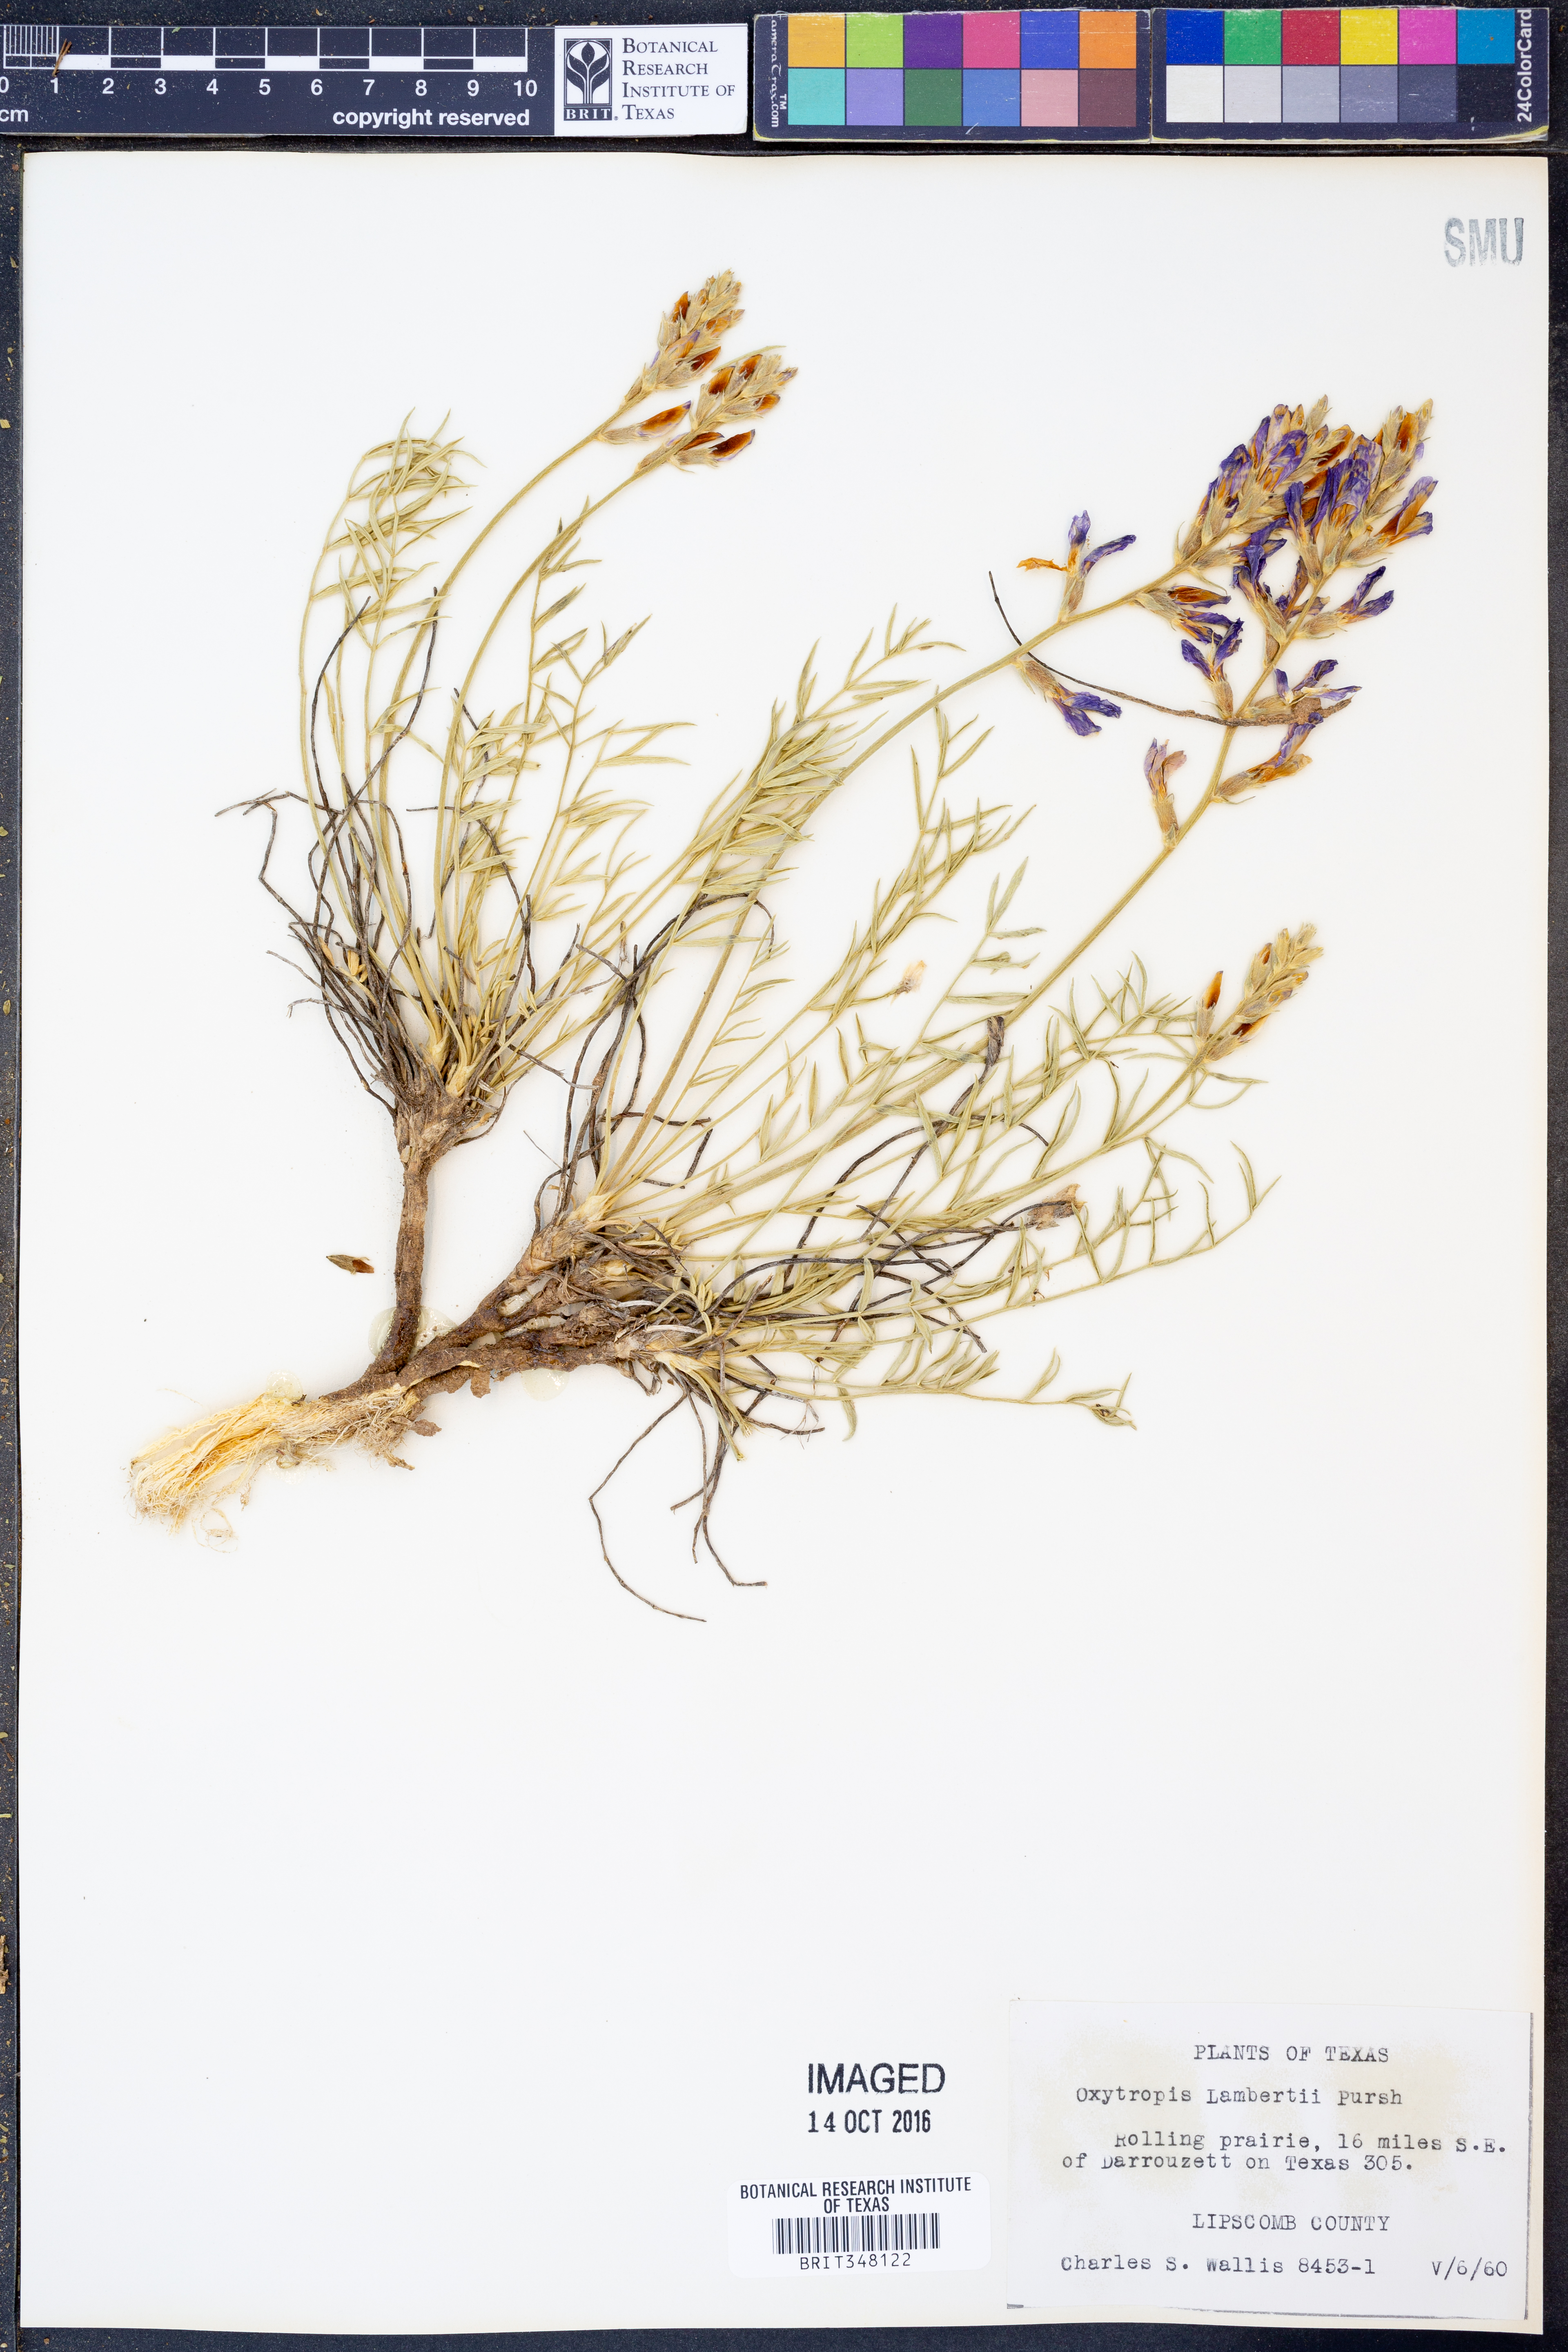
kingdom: Plantae
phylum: Tracheophyta
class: Magnoliopsida
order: Fabales
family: Fabaceae
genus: Oxytropis
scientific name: Oxytropis lambertii
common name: Purple locoweed
